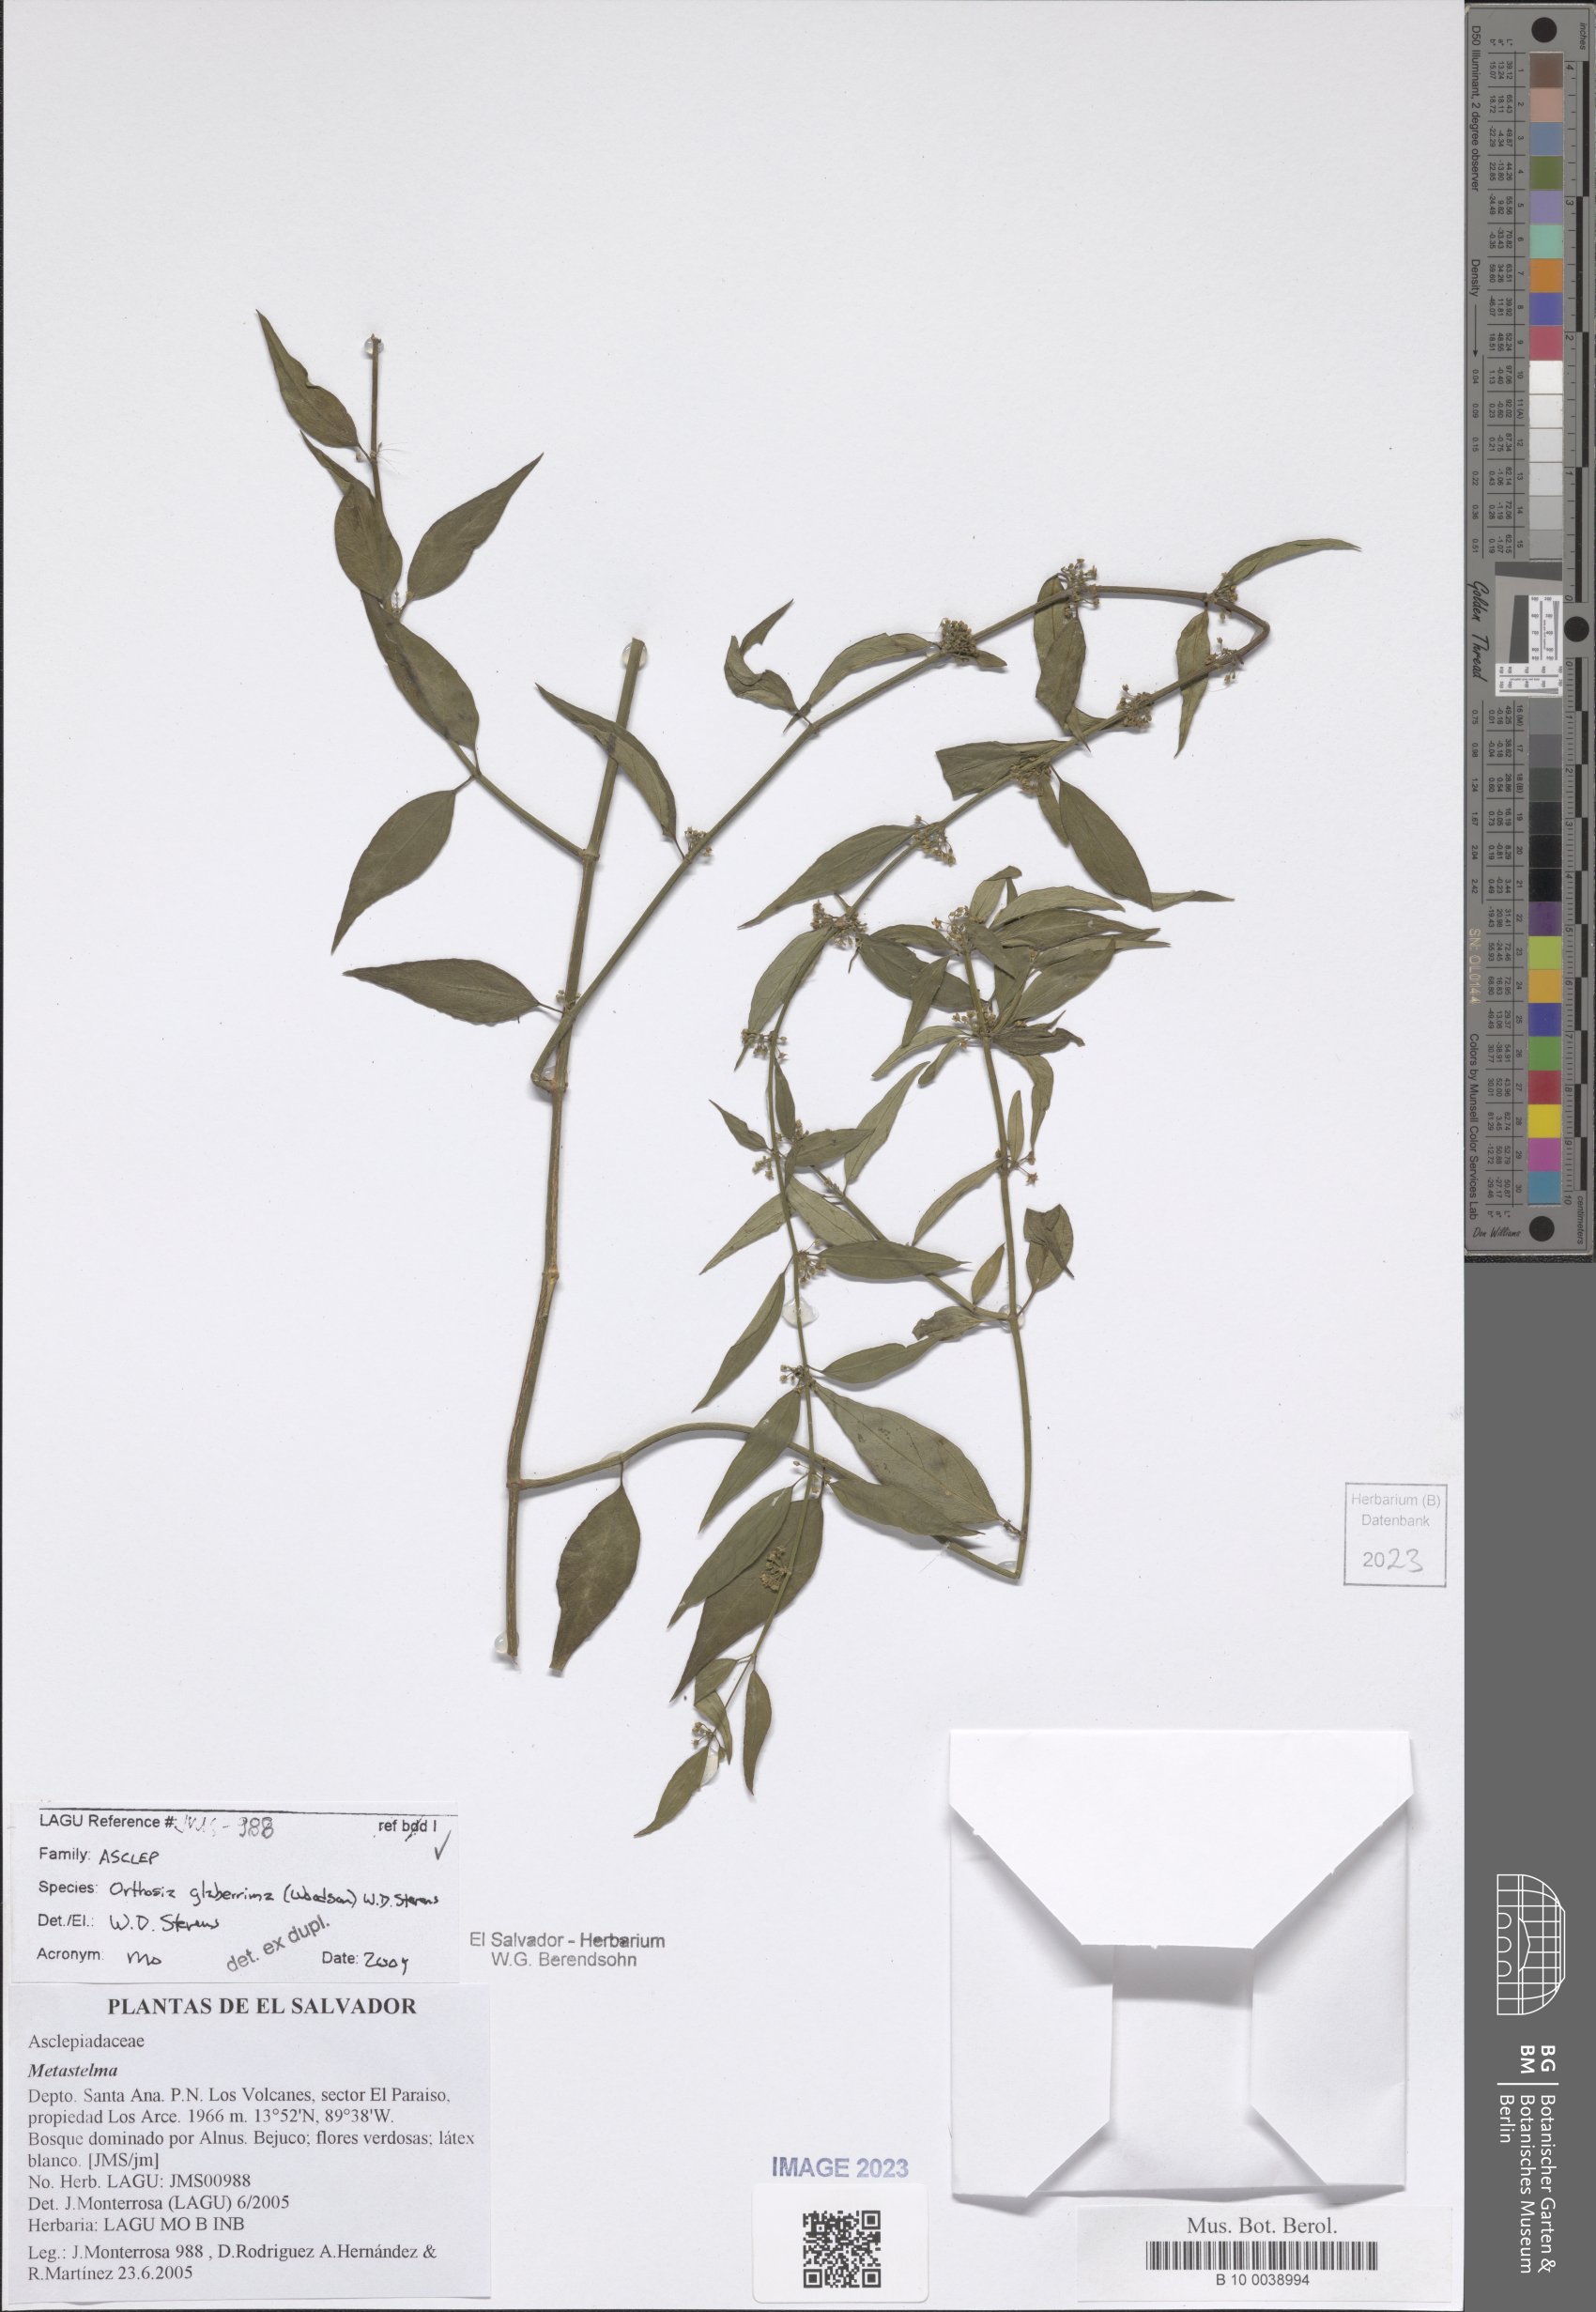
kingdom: Plantae
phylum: Tracheophyta
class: Magnoliopsida
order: Gentianales
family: Apocynaceae
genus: Orthosia
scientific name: Orthosia glaberrima
